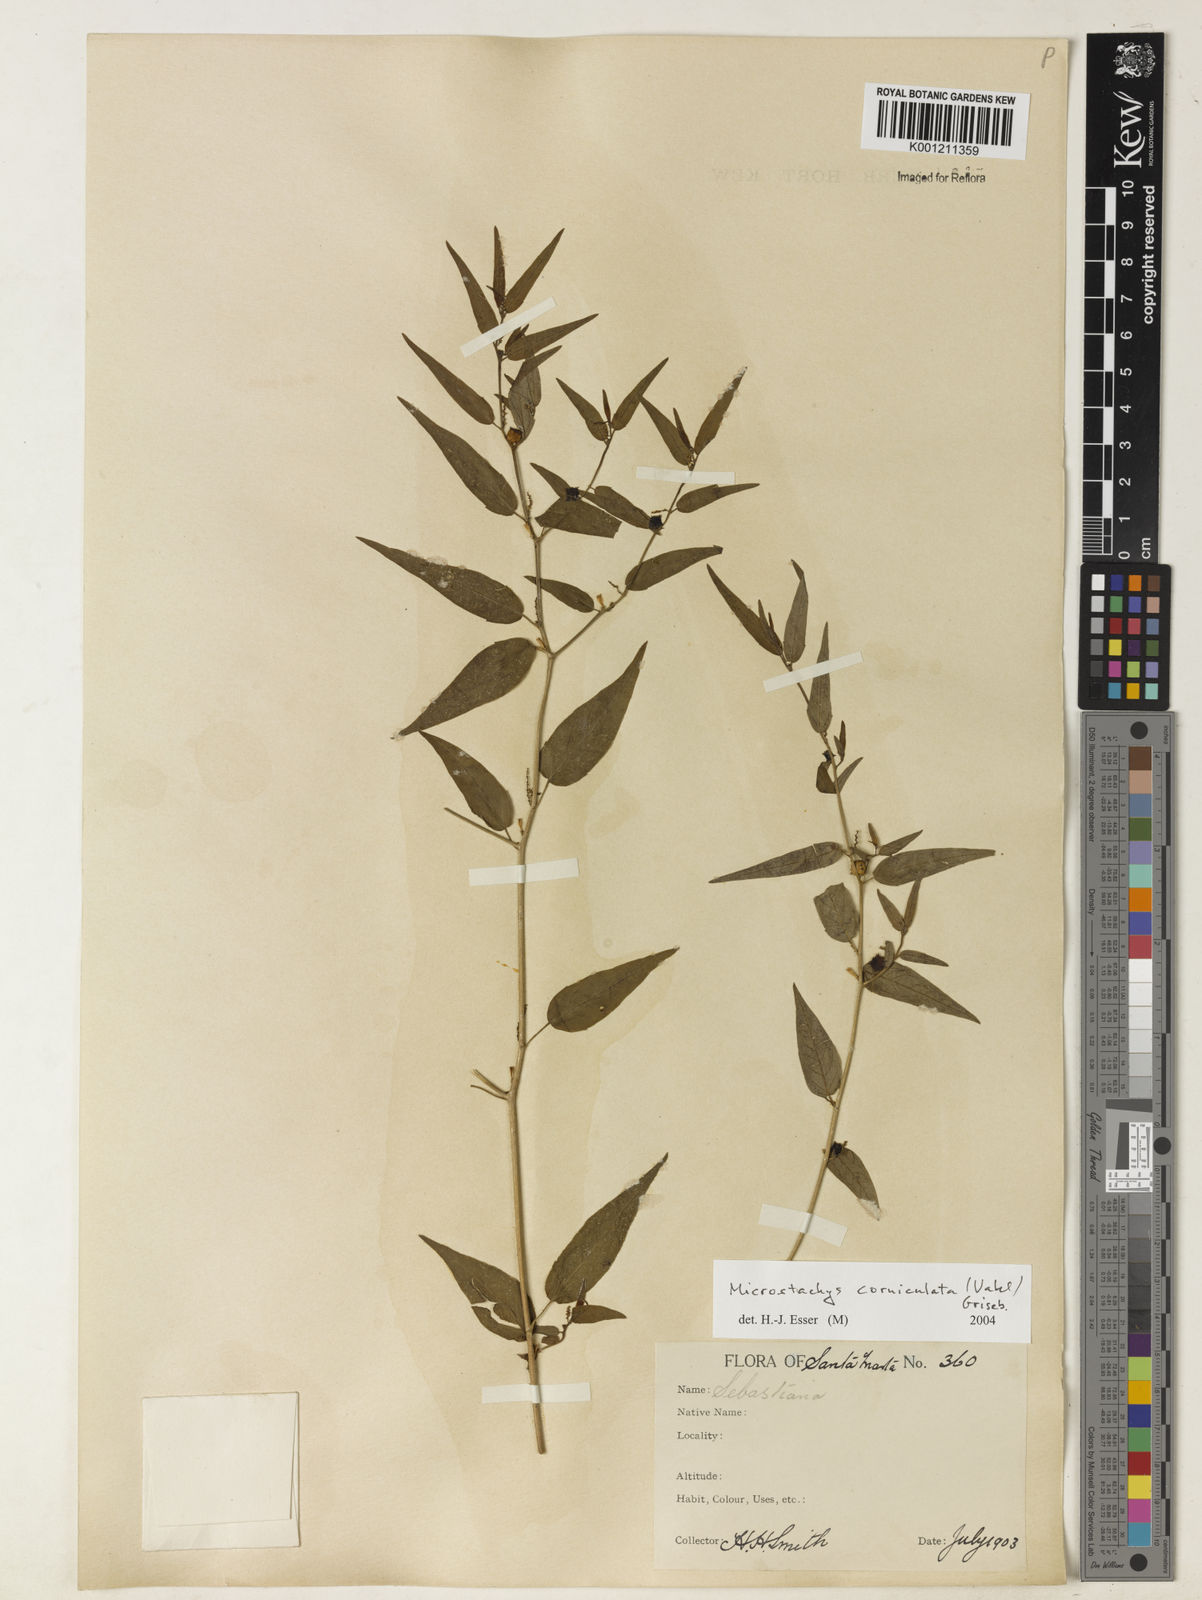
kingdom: Plantae
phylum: Tracheophyta
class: Magnoliopsida
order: Malpighiales
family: Euphorbiaceae
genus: Microstachys
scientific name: Microstachys corniculata
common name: Hato tejas
